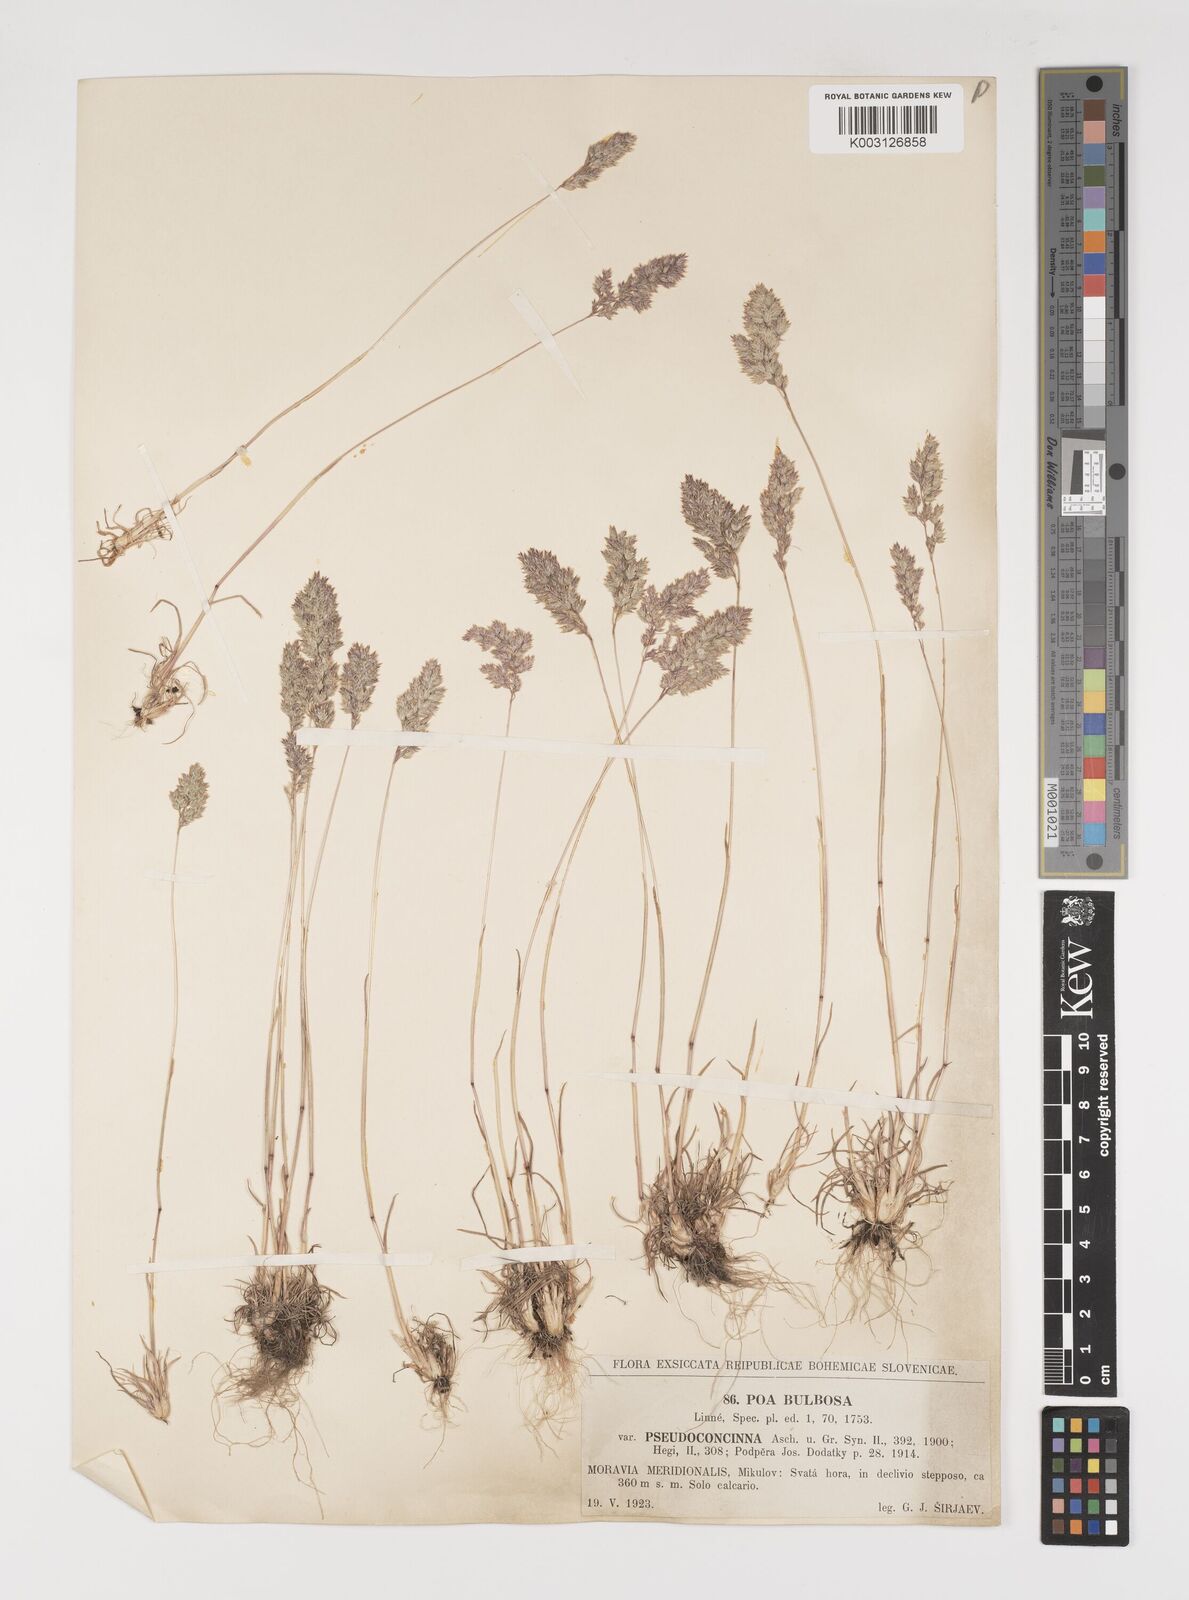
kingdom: Plantae
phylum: Tracheophyta
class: Liliopsida
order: Poales
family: Poaceae
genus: Poa
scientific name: Poa bulbosa
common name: Bulbous bluegrass
